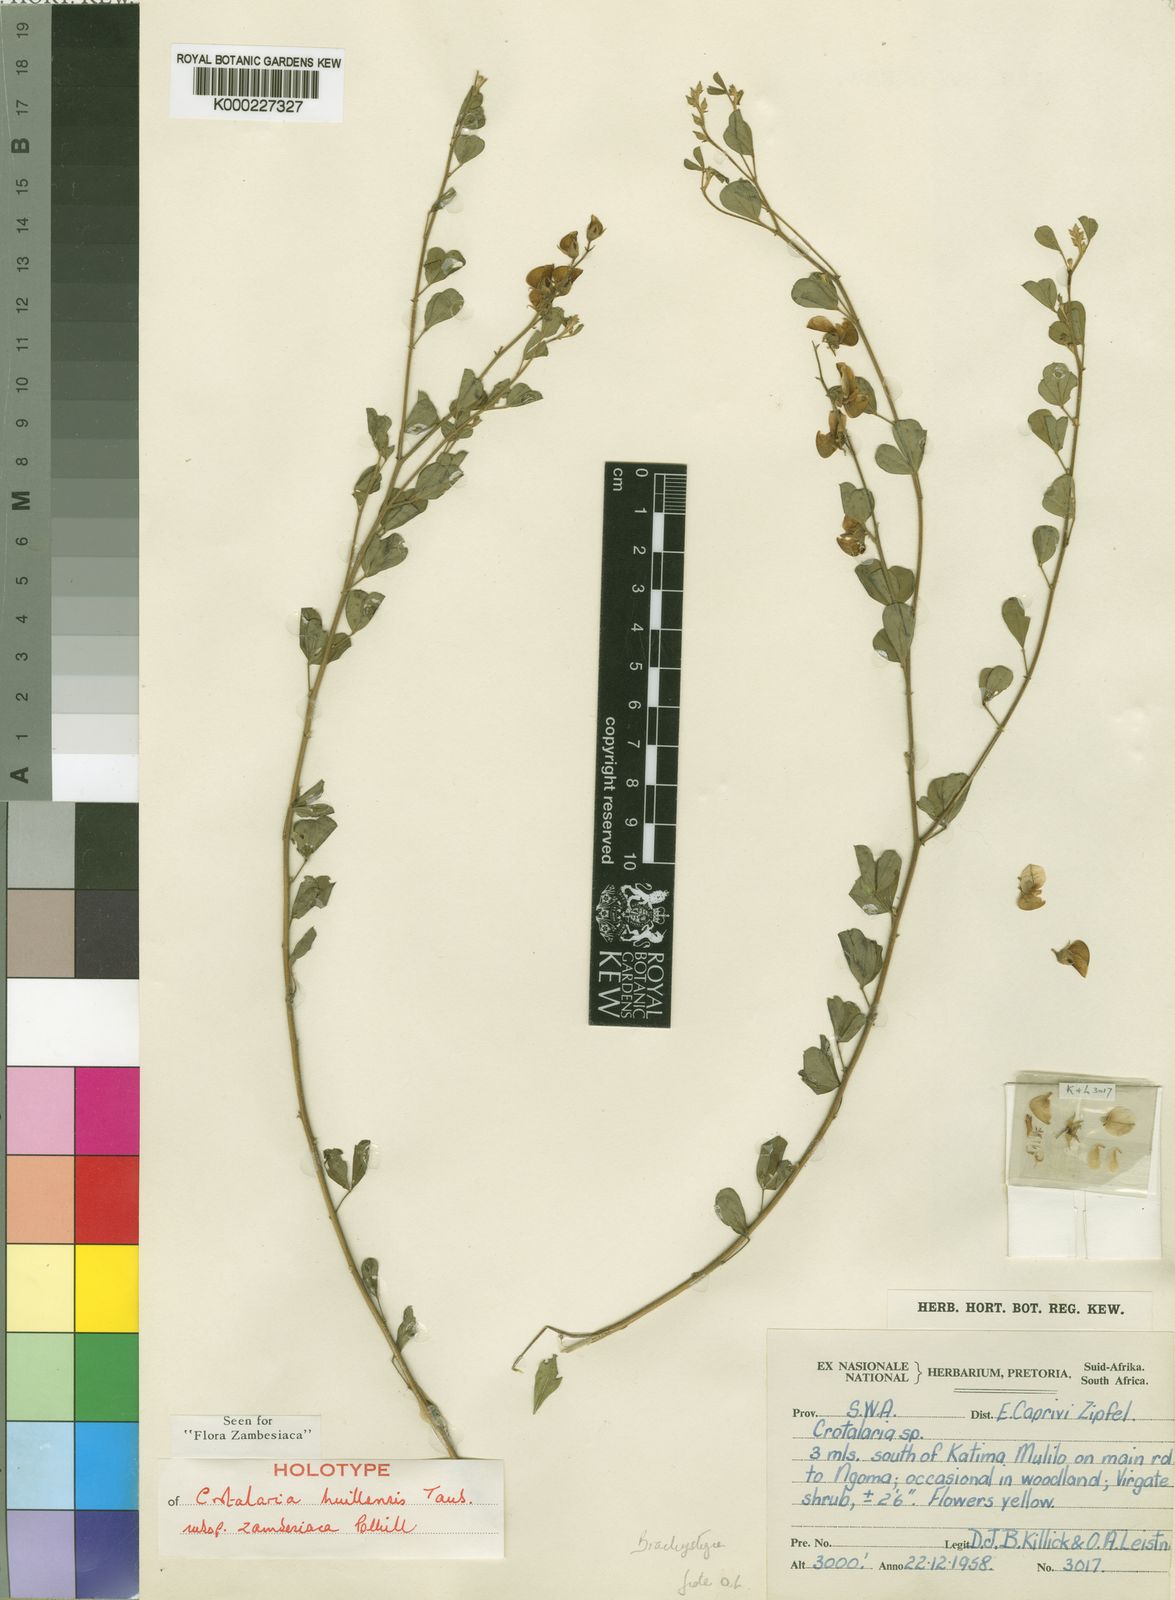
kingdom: Plantae
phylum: Tracheophyta
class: Magnoliopsida
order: Fabales
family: Fabaceae
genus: Crotalaria
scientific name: Crotalaria huillensis
